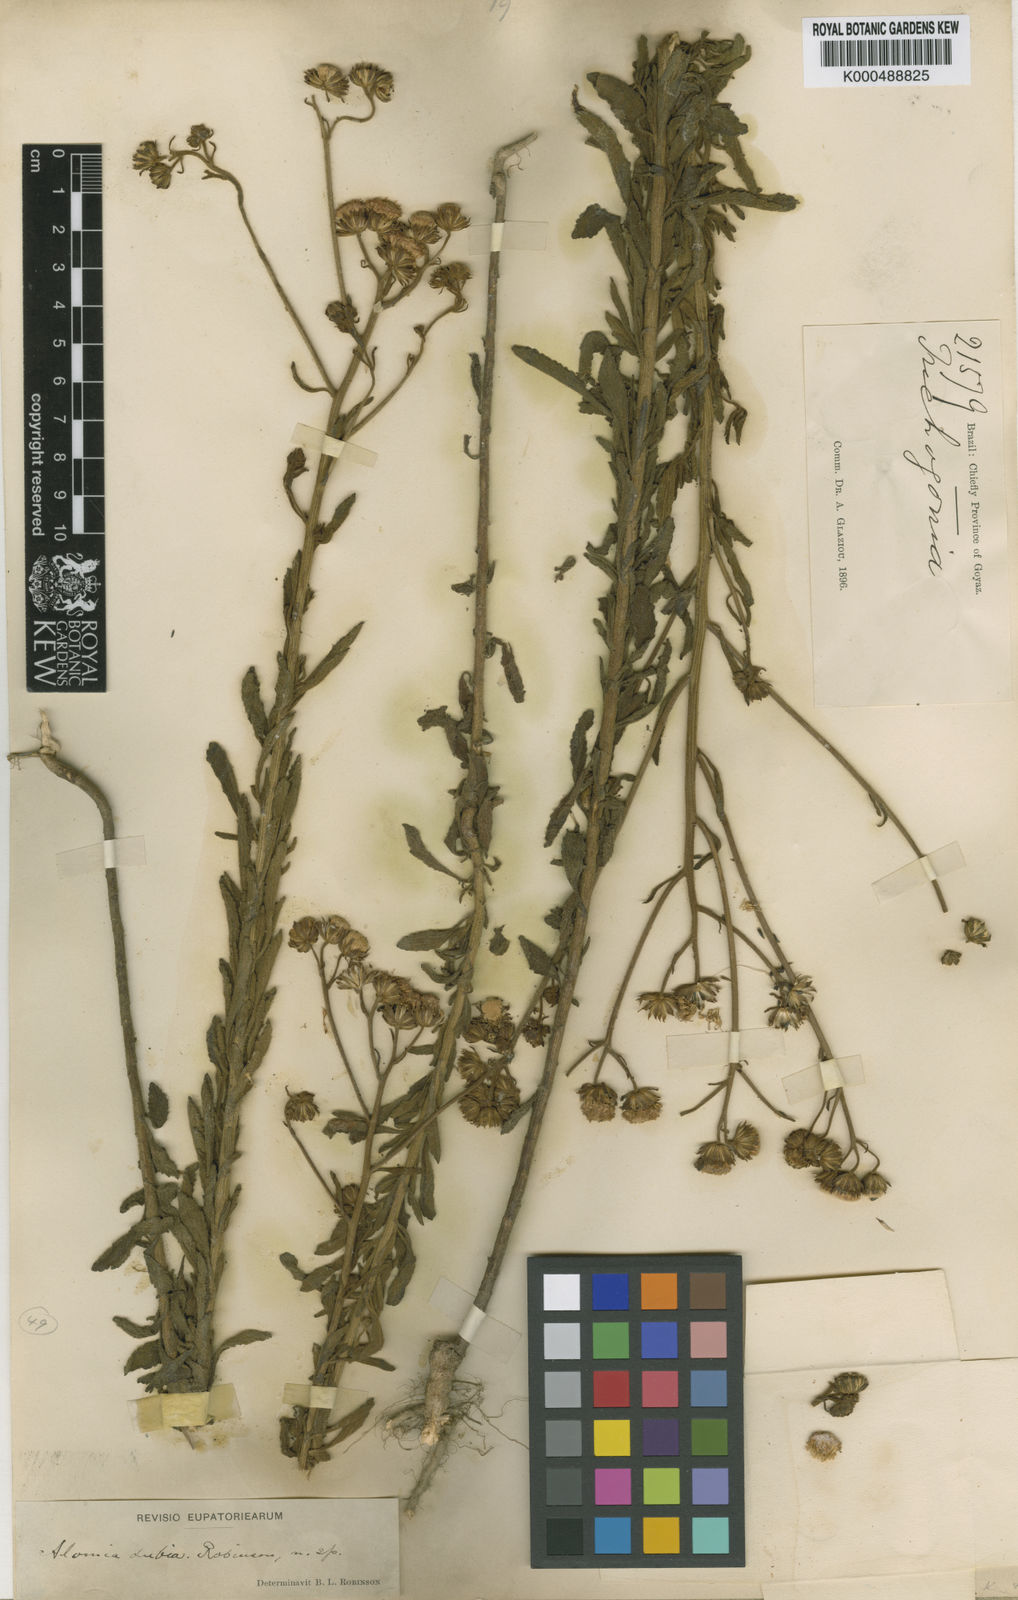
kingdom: Plantae
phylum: Tracheophyta
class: Magnoliopsida
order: Asterales
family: Asteraceae
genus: Trichogonia
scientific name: Trichogonia cinerea
